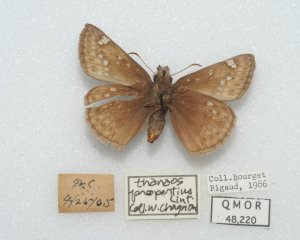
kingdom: Animalia
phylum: Arthropoda
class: Insecta
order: Lepidoptera
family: Hesperiidae
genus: Gesta
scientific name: Gesta
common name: Persius Duskywing
